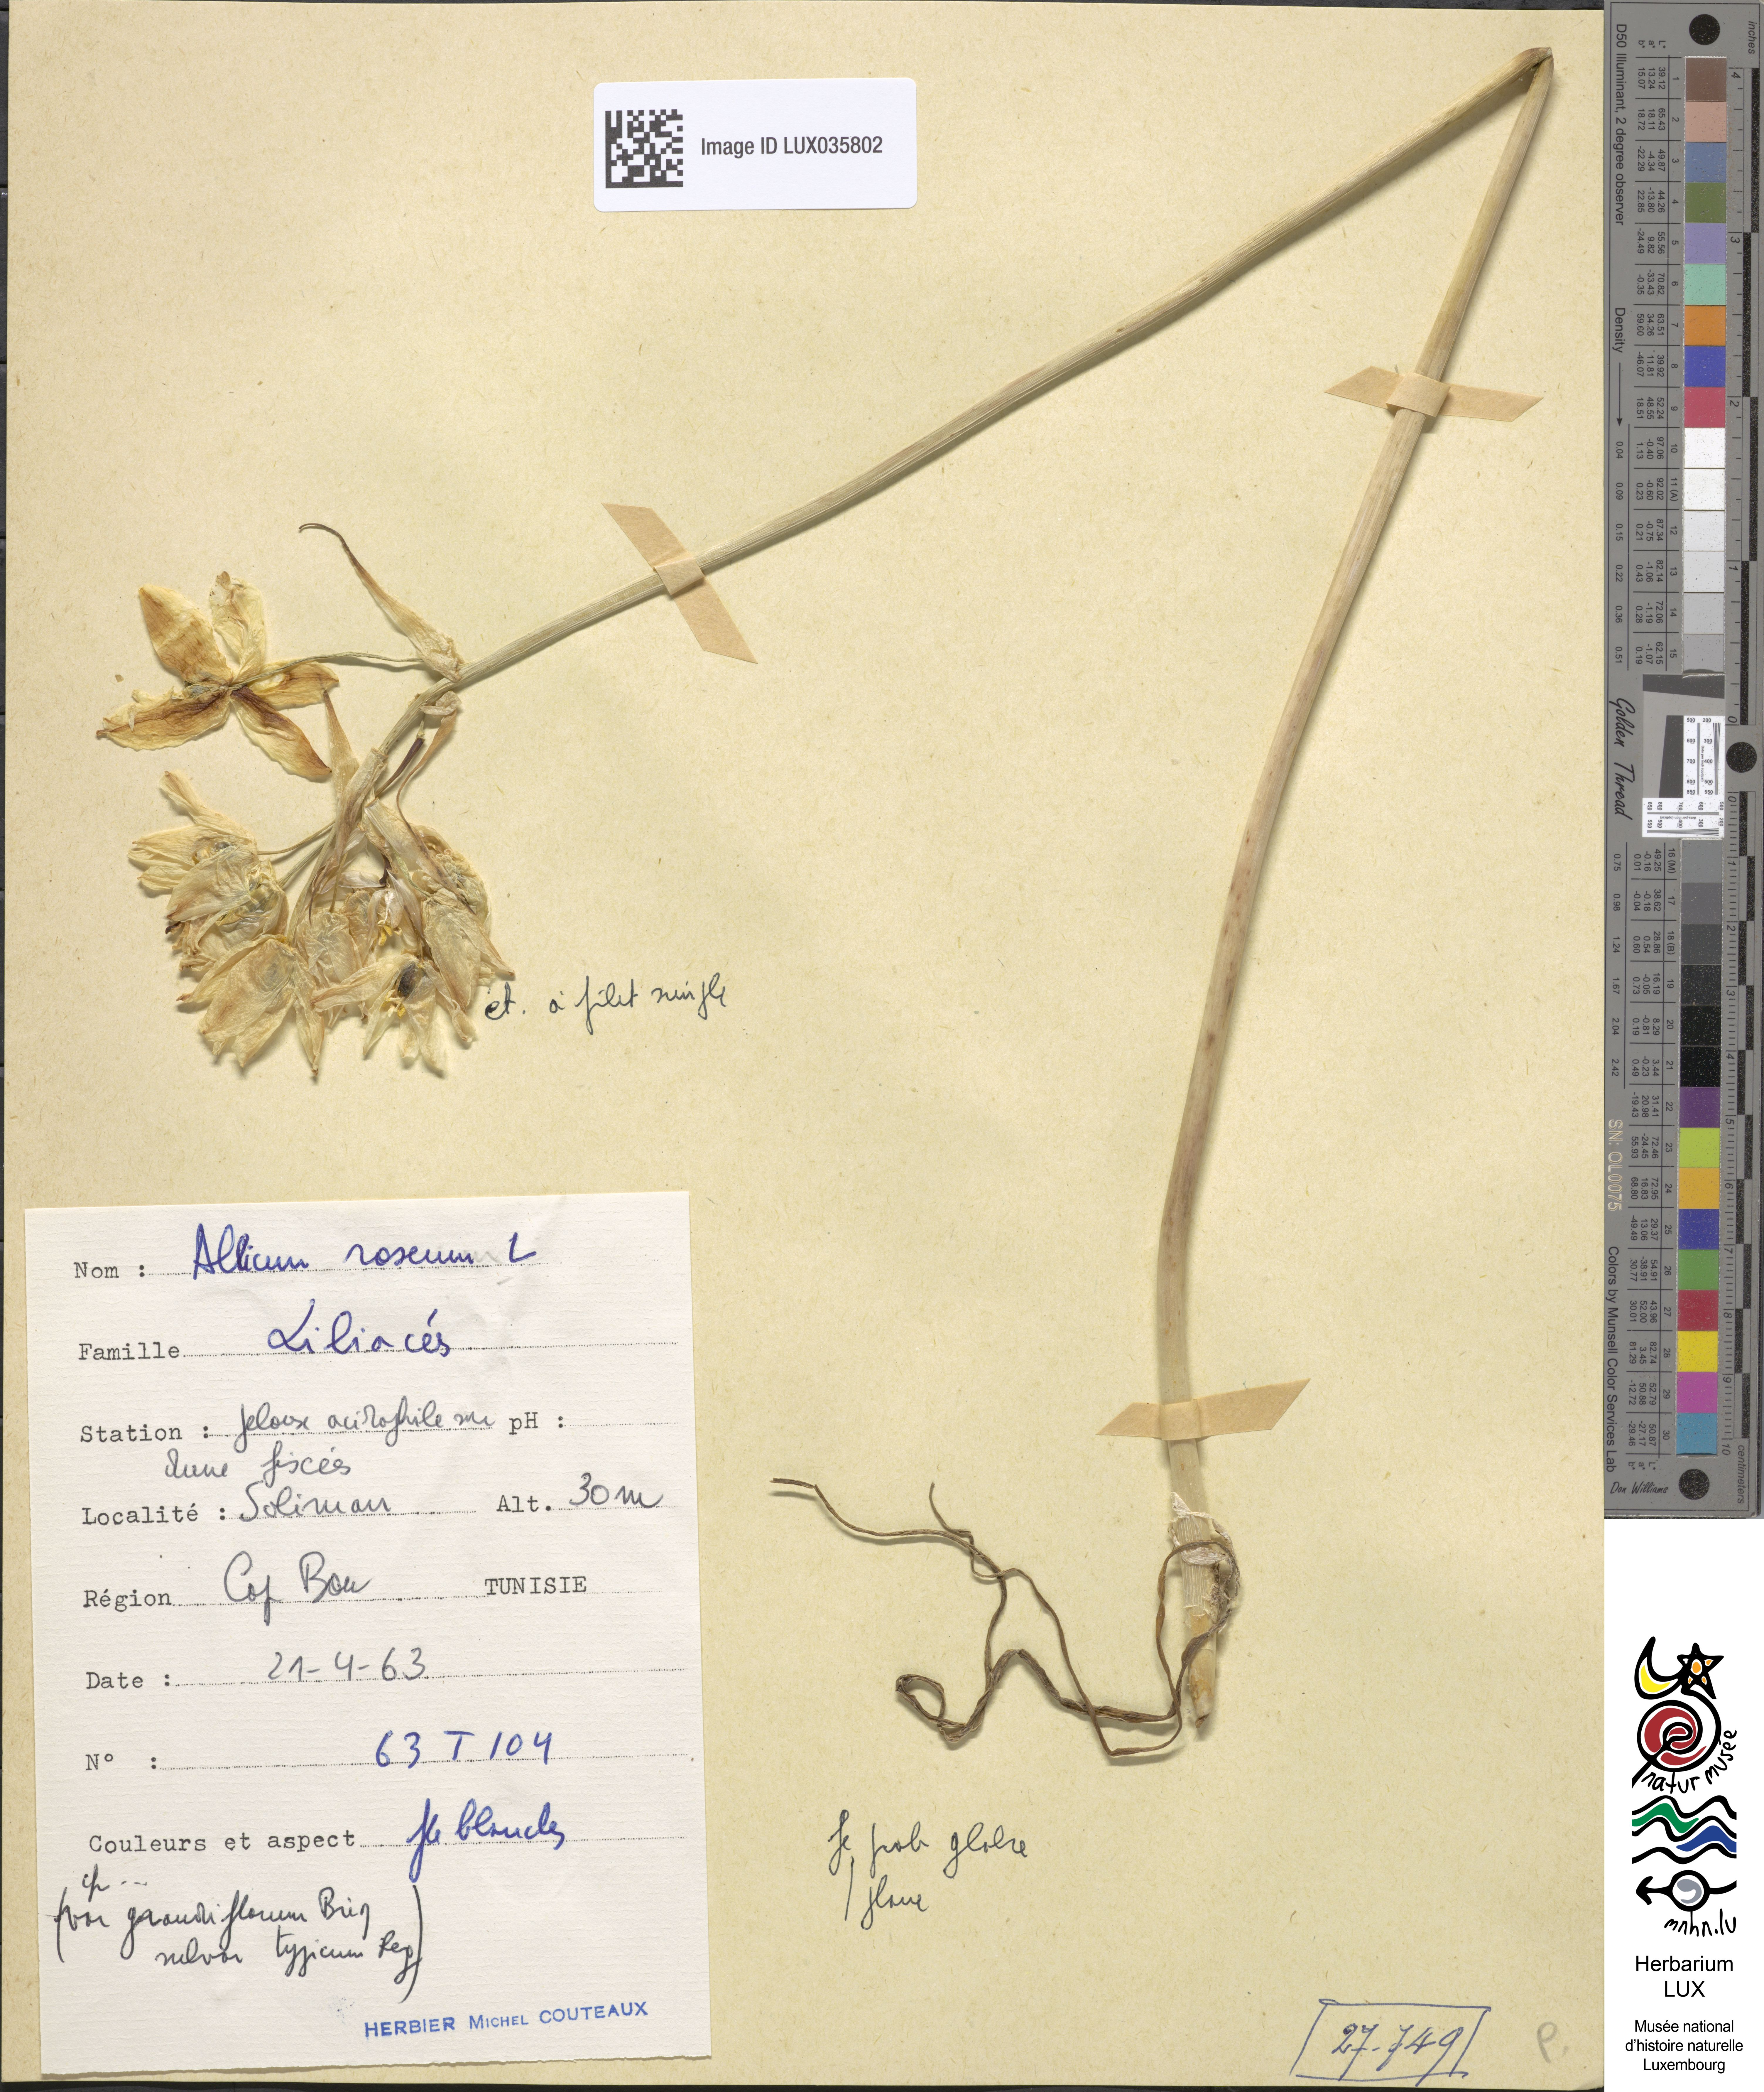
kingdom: Plantae
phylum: Tracheophyta
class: Liliopsida
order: Asparagales
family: Amaryllidaceae
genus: Allium
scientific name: Allium roseum
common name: Rosy garlic
